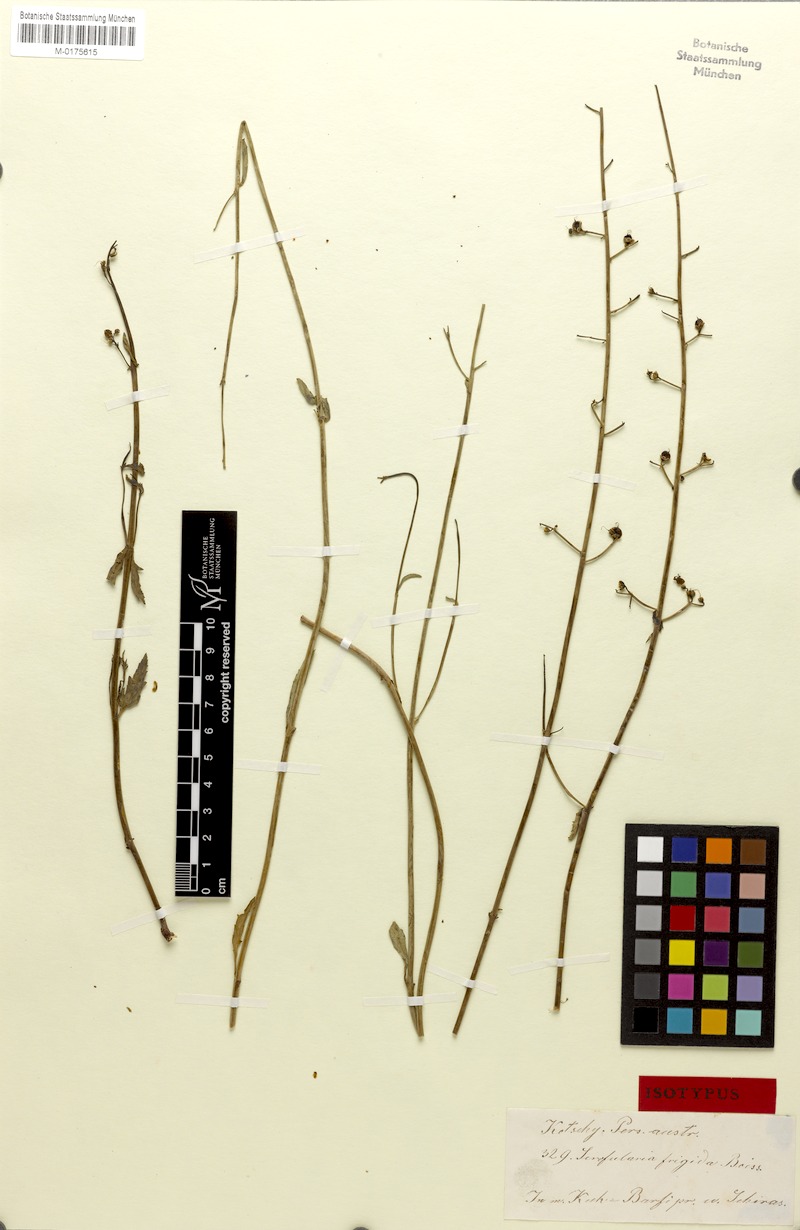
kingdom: Plantae
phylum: Tracheophyta
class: Magnoliopsida
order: Lamiales
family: Scrophulariaceae
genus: Scrophularia
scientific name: Scrophularia frigida
